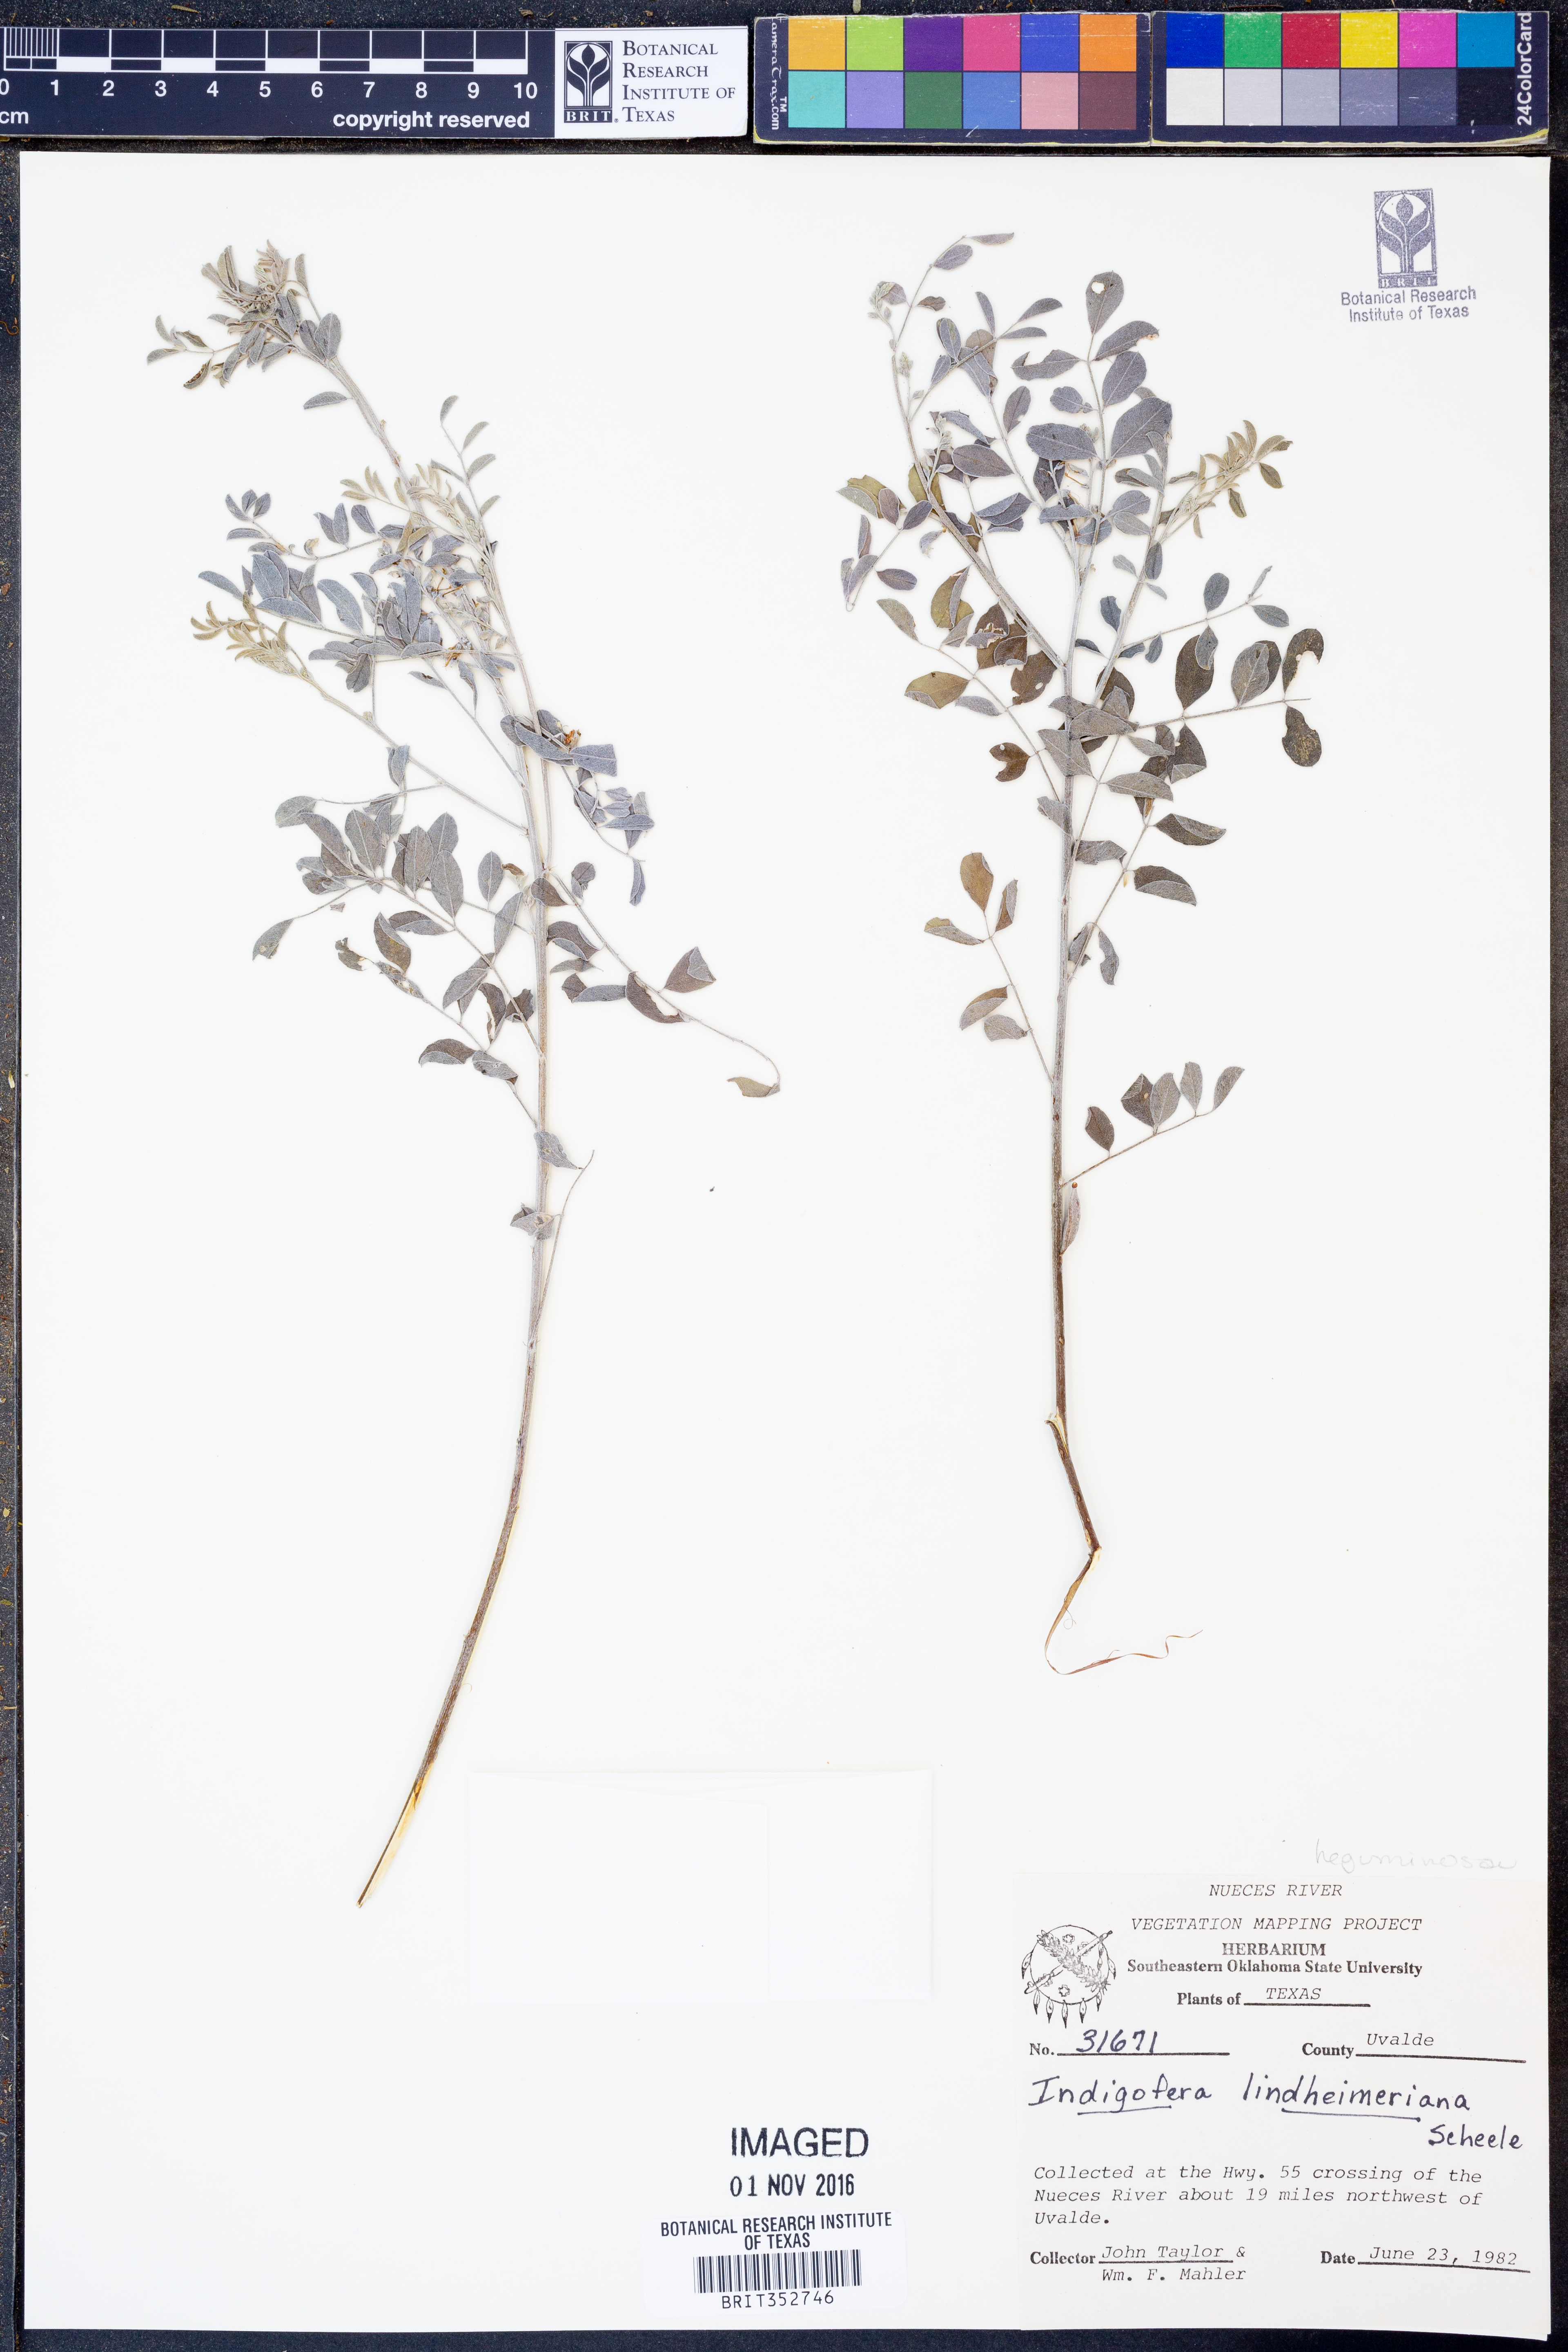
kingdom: Plantae
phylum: Tracheophyta
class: Magnoliopsida
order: Fabales
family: Fabaceae
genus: Indigofera
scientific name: Indigofera lindheimeriana
